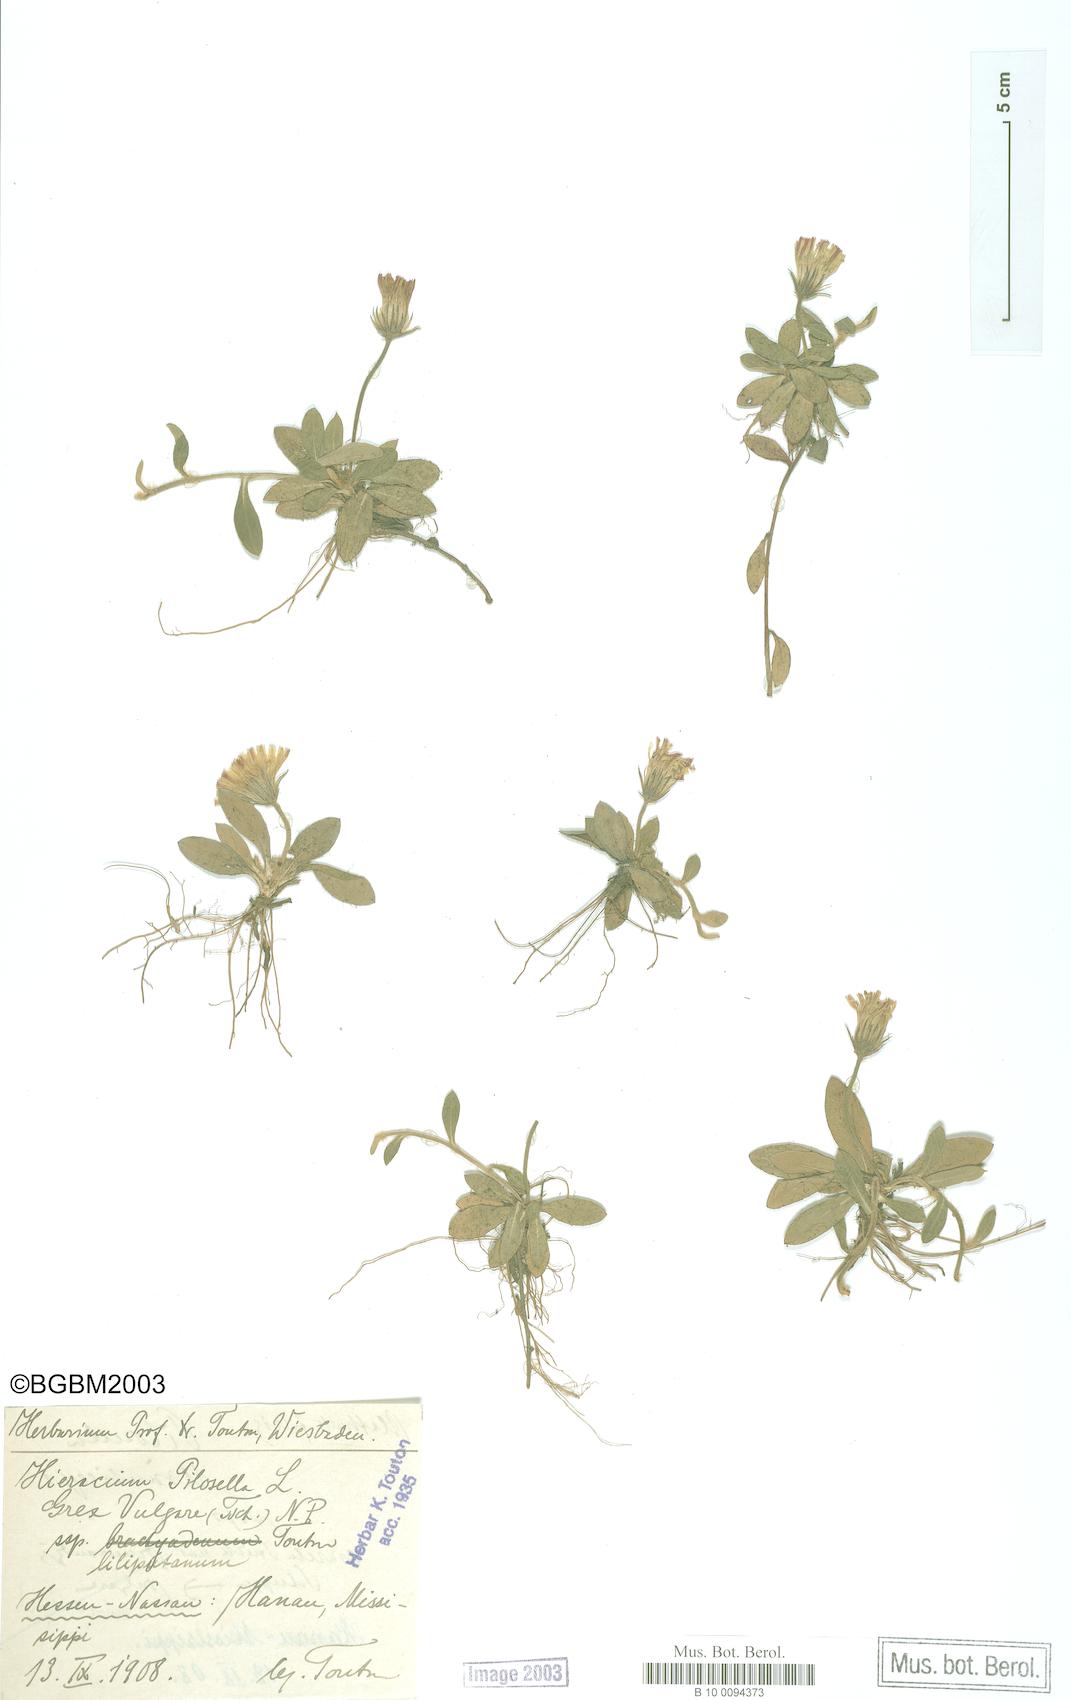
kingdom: Plantae
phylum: Tracheophyta
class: Magnoliopsida
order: Asterales
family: Asteraceae
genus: Pilosella
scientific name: Pilosella officinarum
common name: Mouse-ear hawkweed
